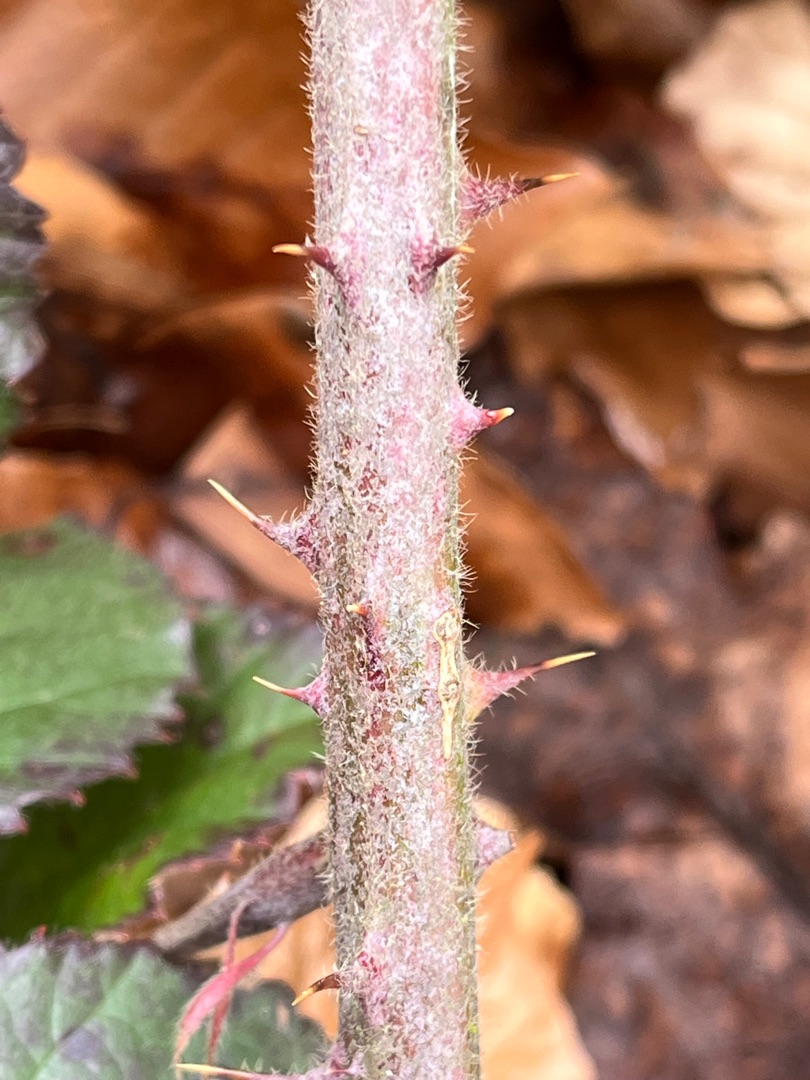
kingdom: Plantae
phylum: Tracheophyta
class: Magnoliopsida
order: Rosales
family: Rosaceae
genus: Rubus
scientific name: Rubus vestitus
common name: Rundbladet brombær
